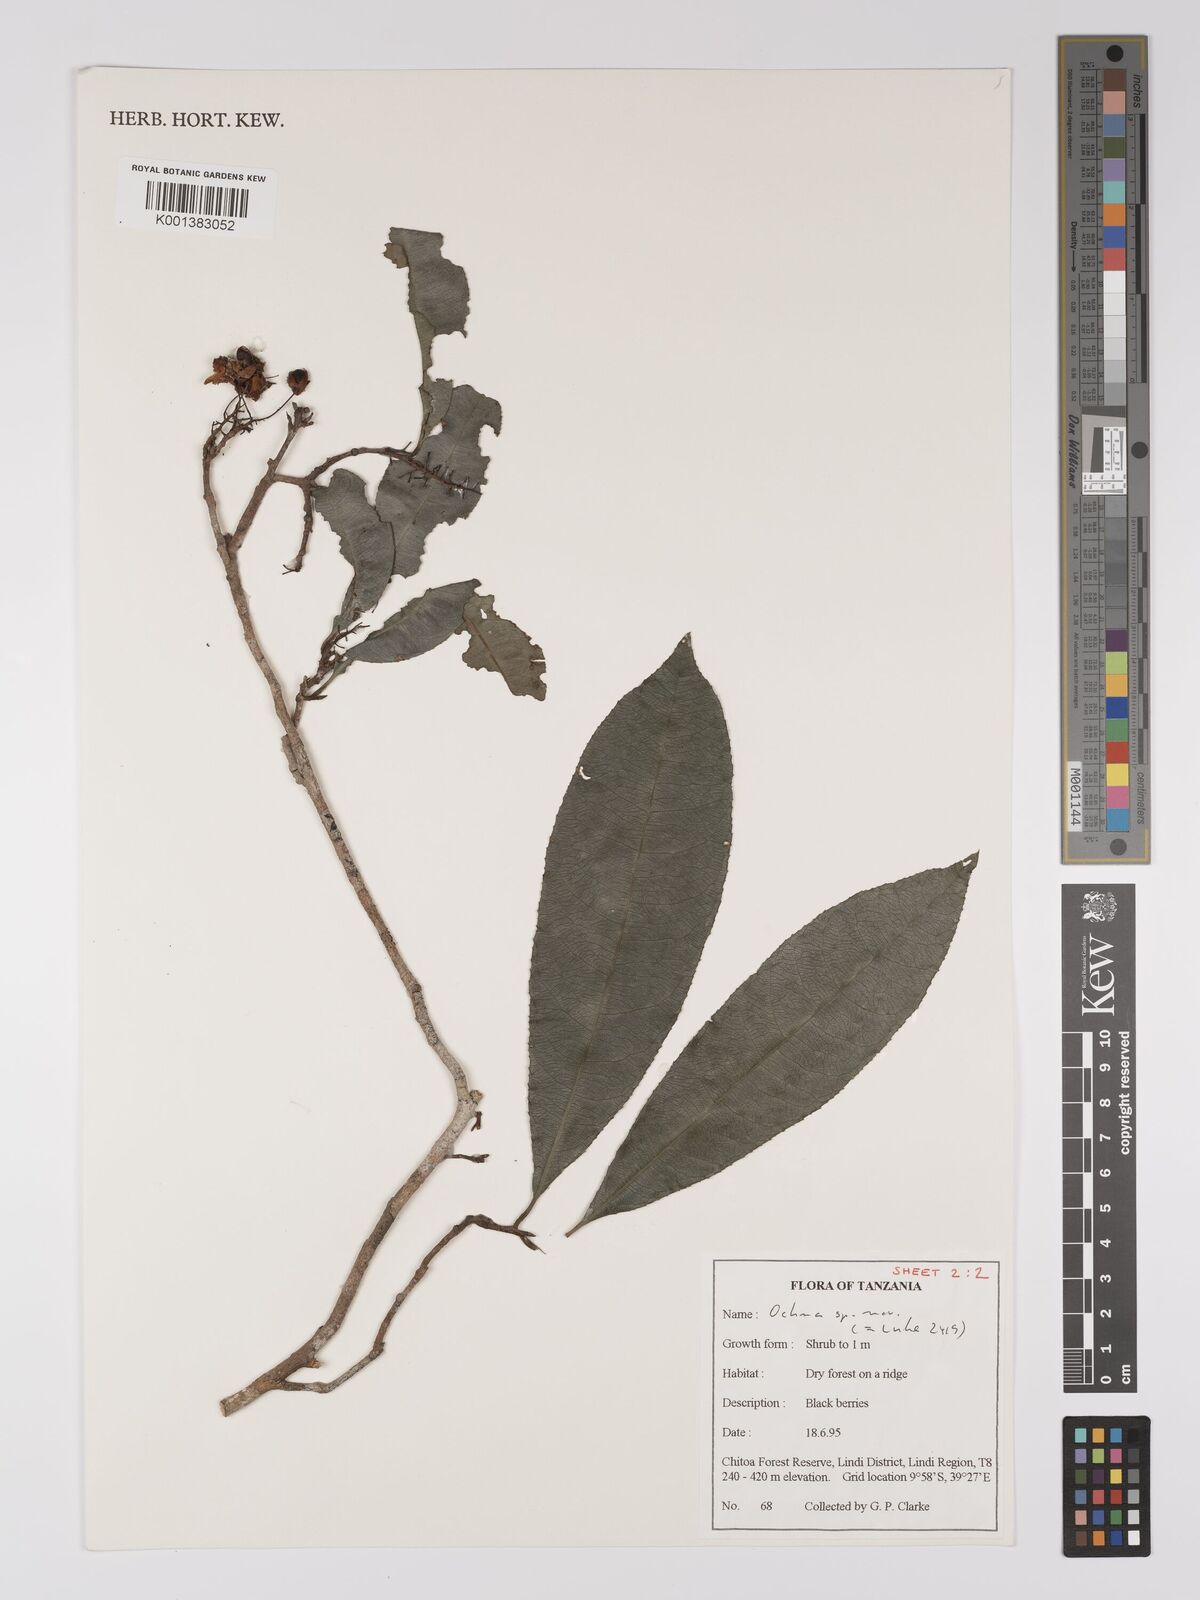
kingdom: Plantae
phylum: Tracheophyta
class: Magnoliopsida
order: Malpighiales
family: Ochnaceae
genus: Ochna
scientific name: Ochna apetala
